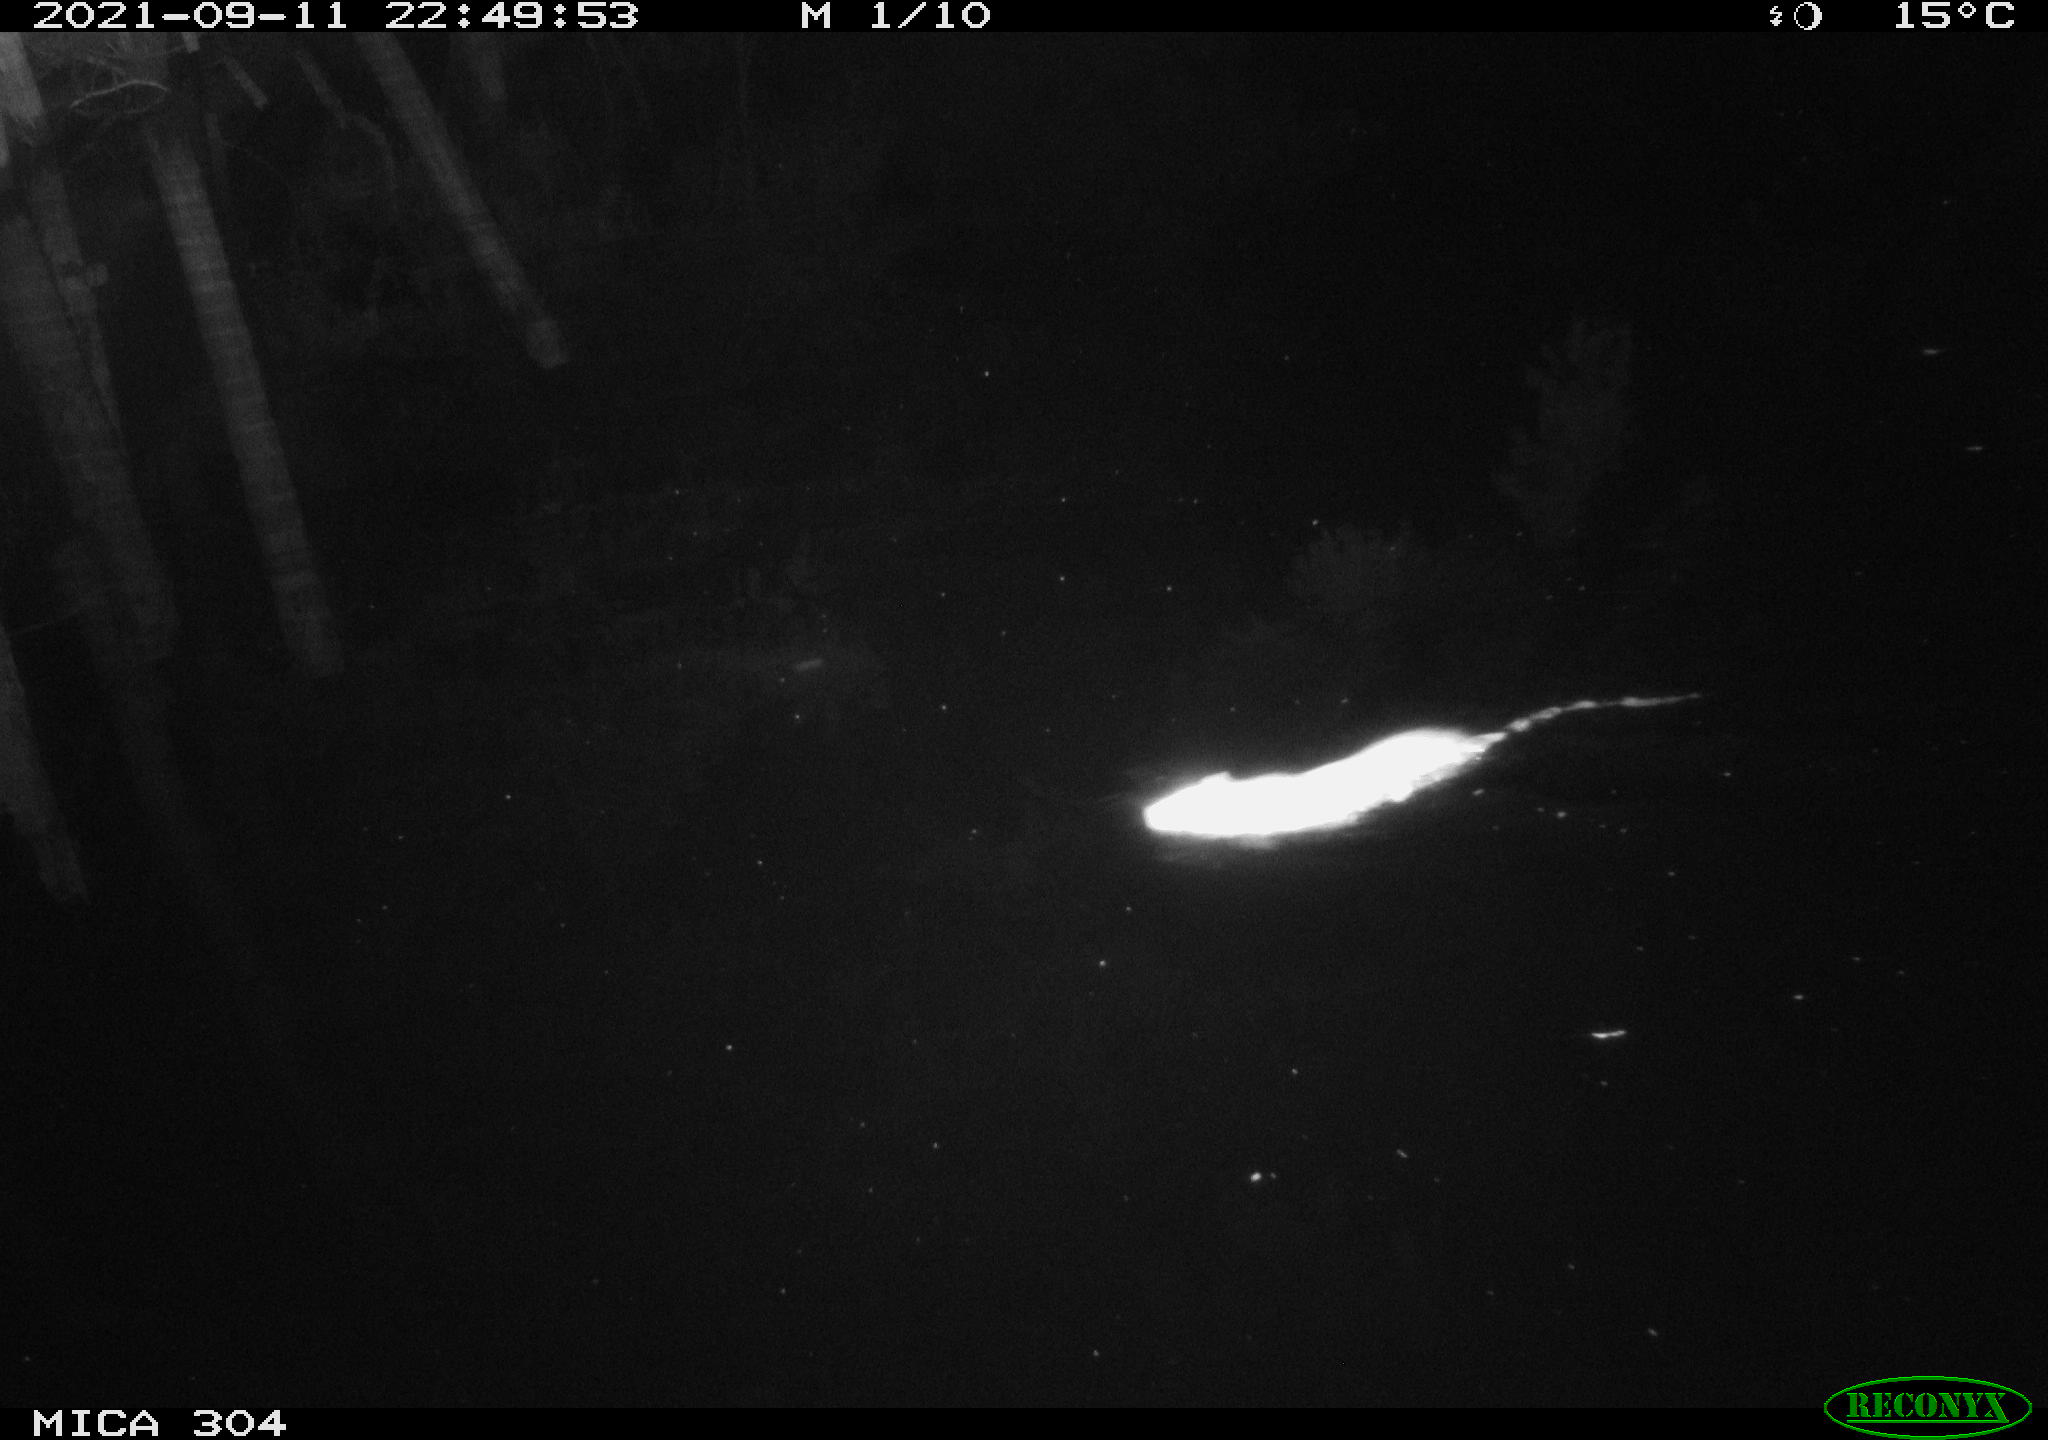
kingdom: Animalia
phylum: Chordata
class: Mammalia
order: Rodentia
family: Muridae
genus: Rattus
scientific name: Rattus norvegicus
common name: Brown rat
